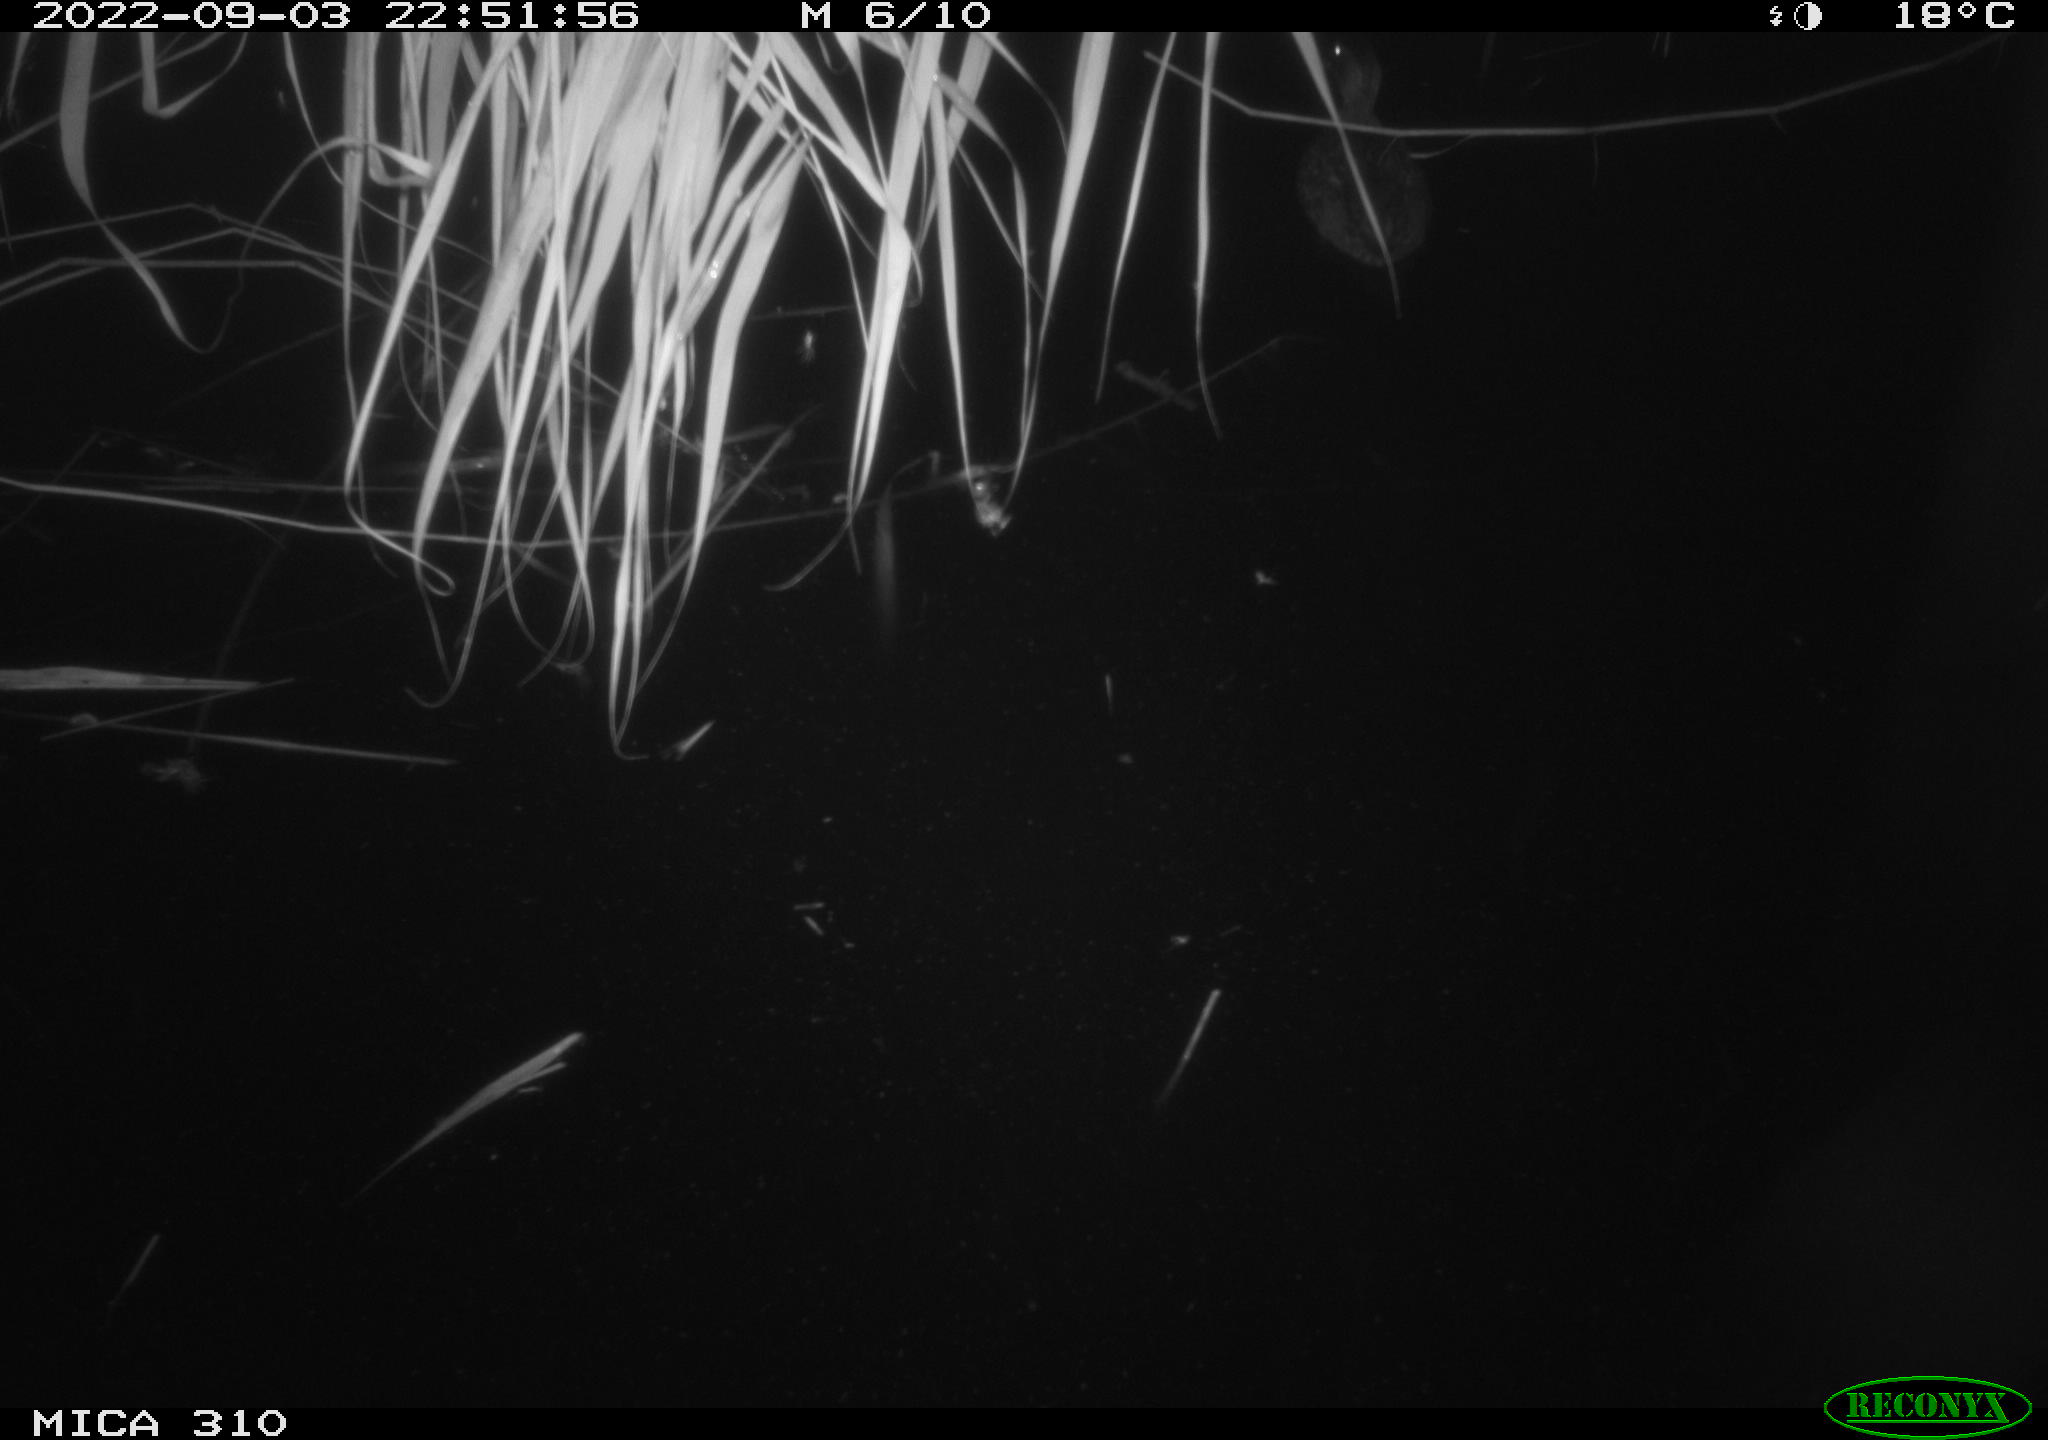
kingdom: Animalia
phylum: Chordata
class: Aves
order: Anseriformes
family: Anatidae
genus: Anas
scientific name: Anas platyrhynchos
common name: Mallard
